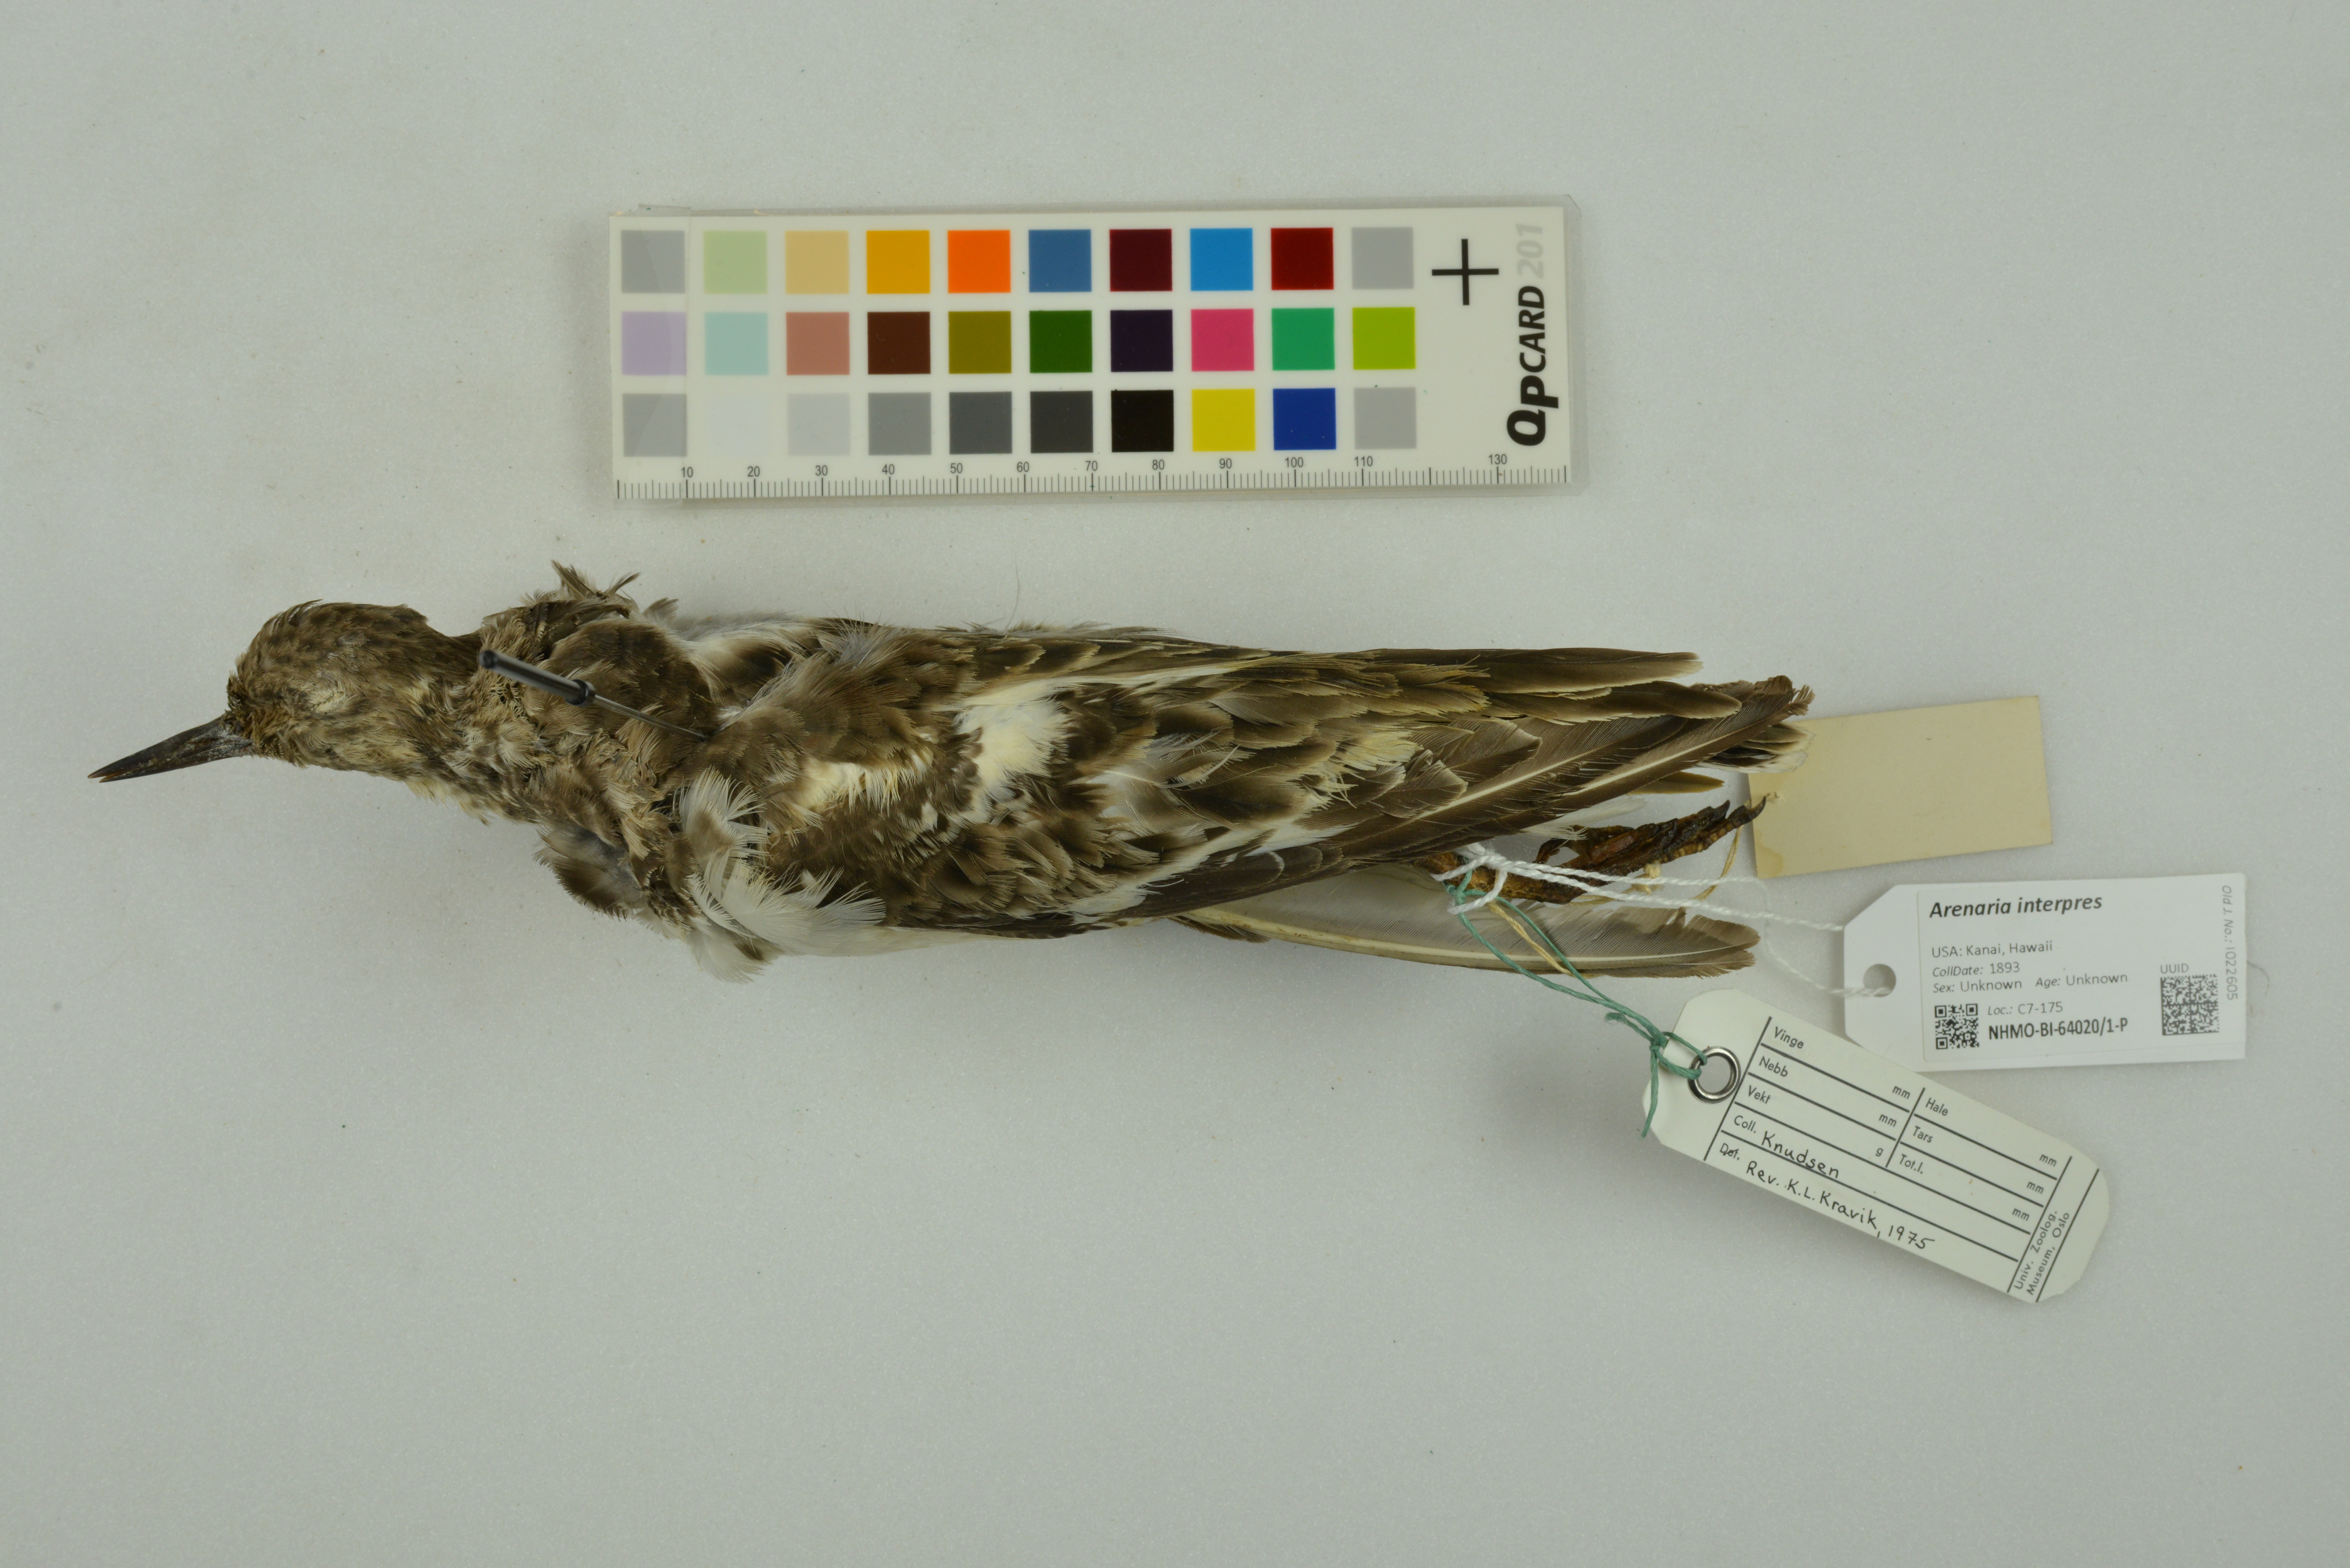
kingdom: Animalia
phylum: Chordata
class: Aves
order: Charadriiformes
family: Scolopacidae
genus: Arenaria
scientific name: Arenaria interpres
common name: Ruddy turnstone
